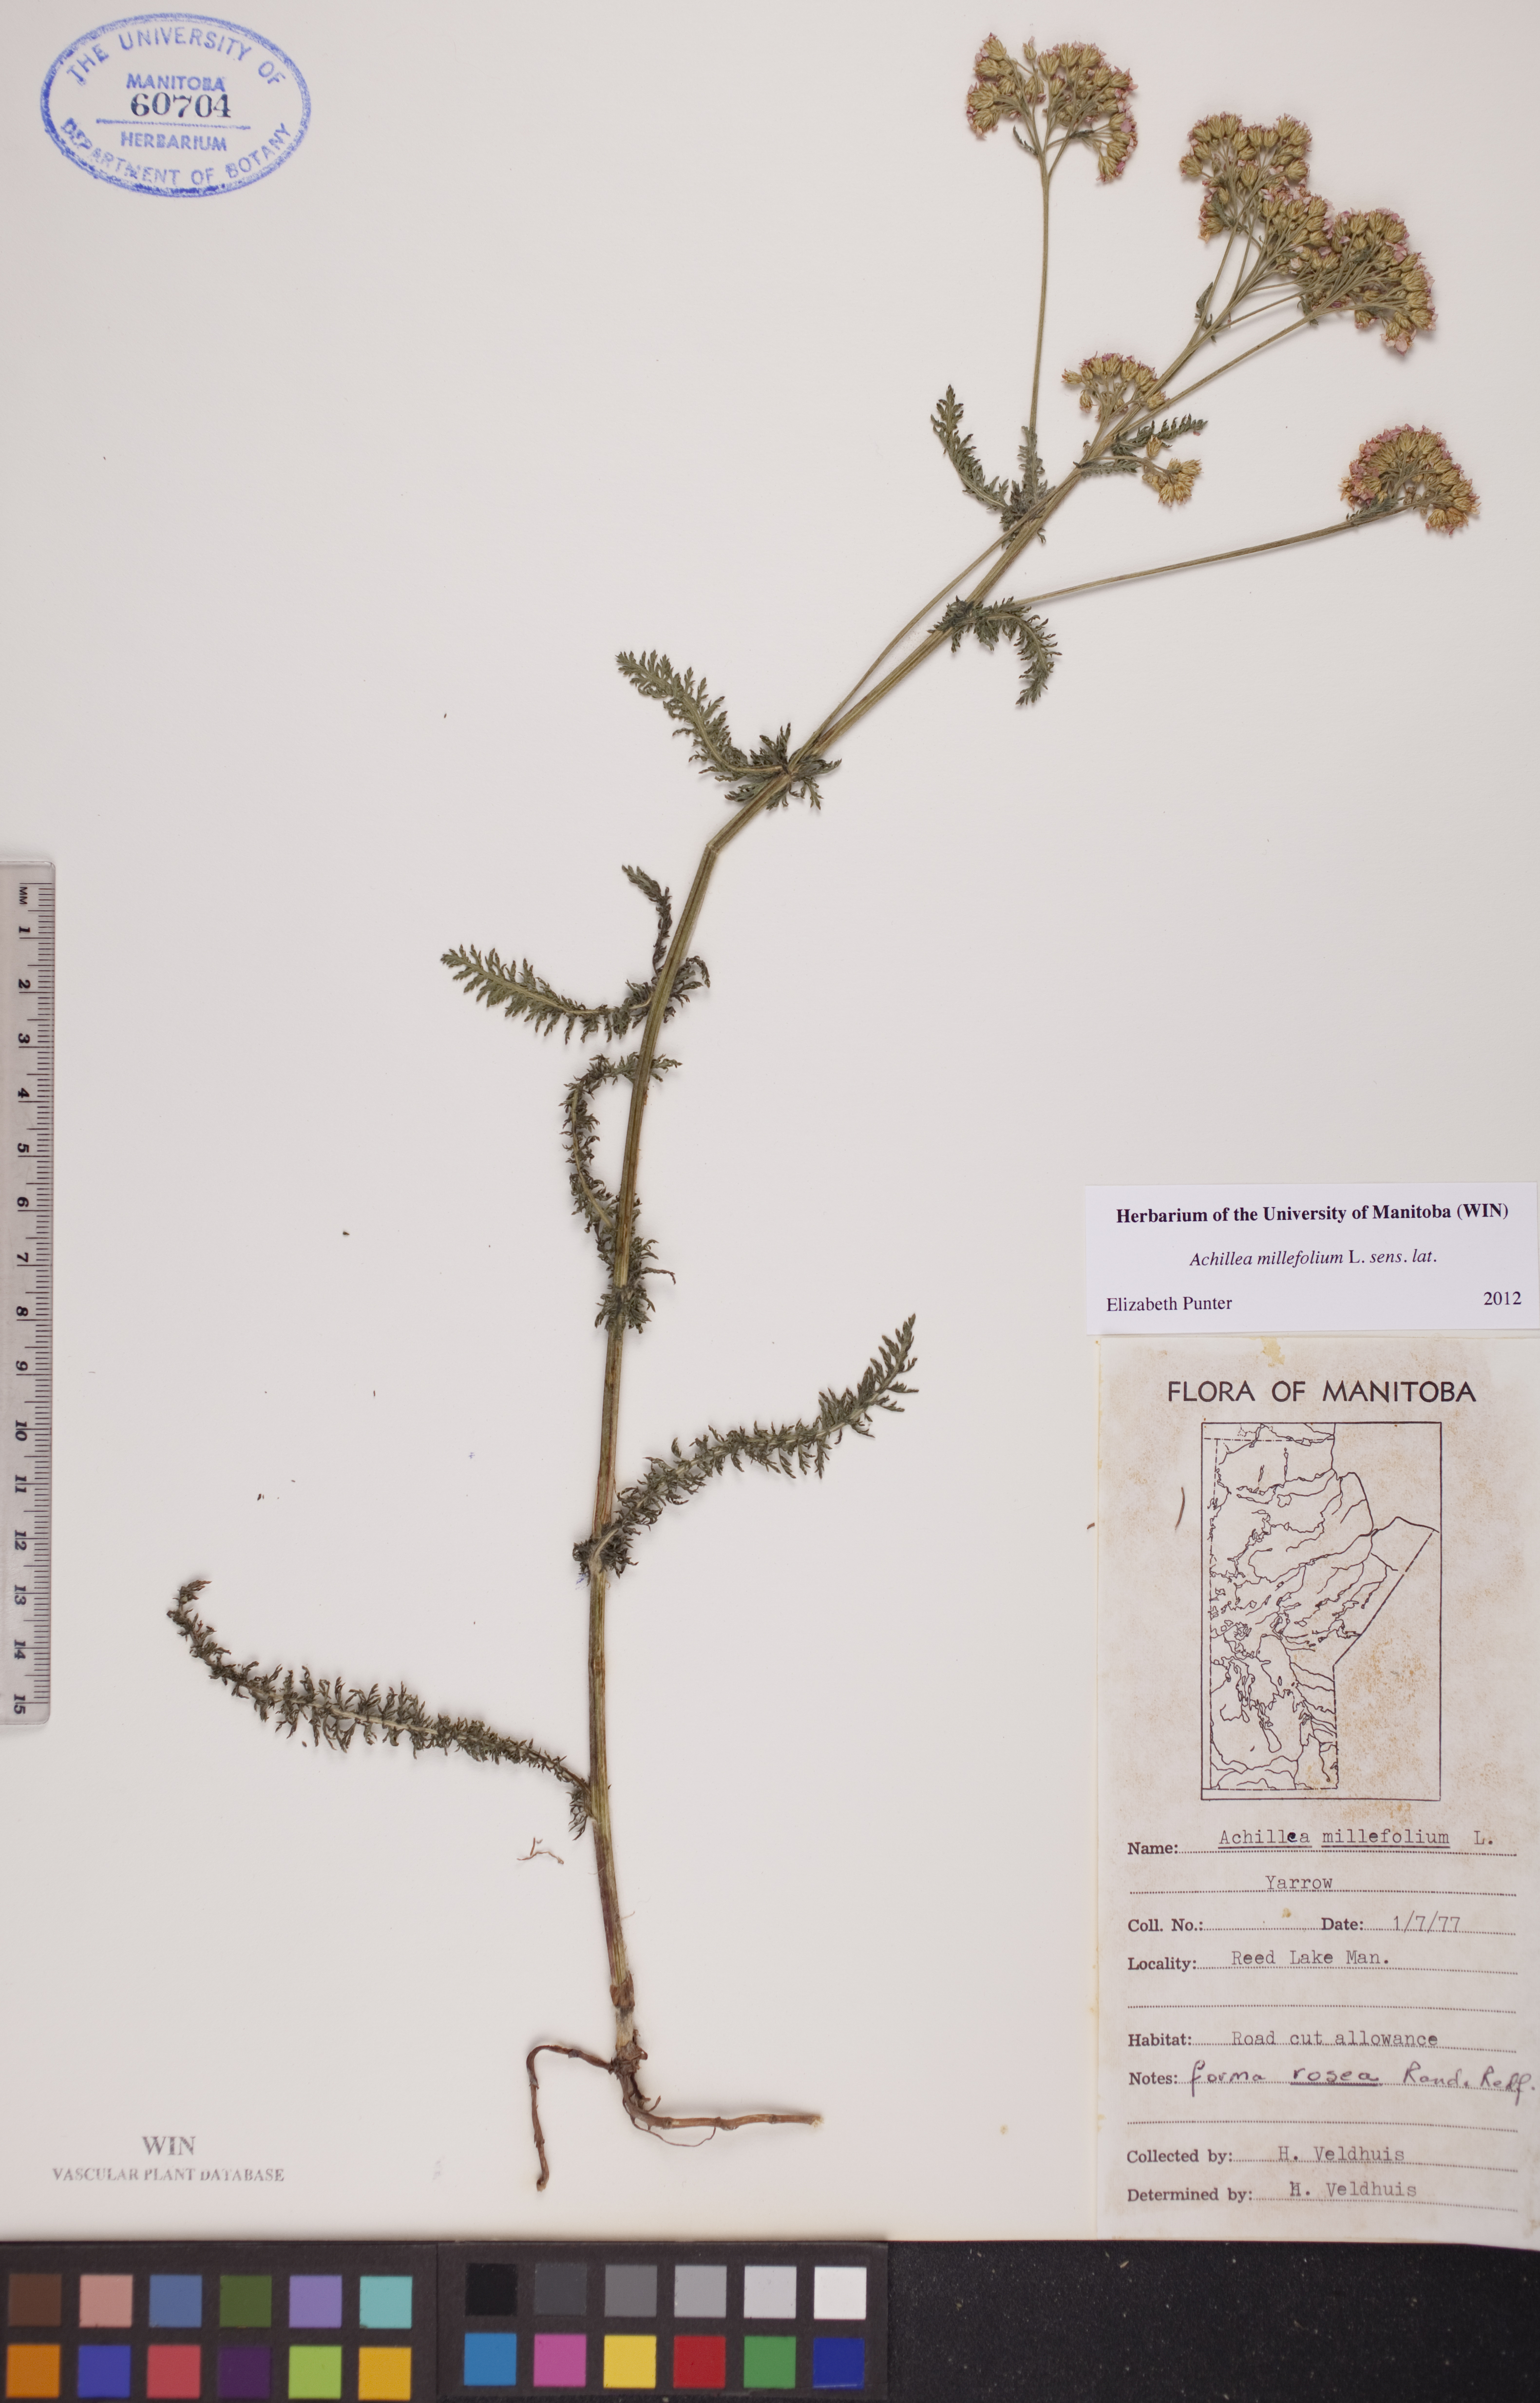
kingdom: Plantae
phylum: Tracheophyta
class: Magnoliopsida
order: Asterales
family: Asteraceae
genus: Achillea
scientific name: Achillea millefolium
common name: Yarrow
